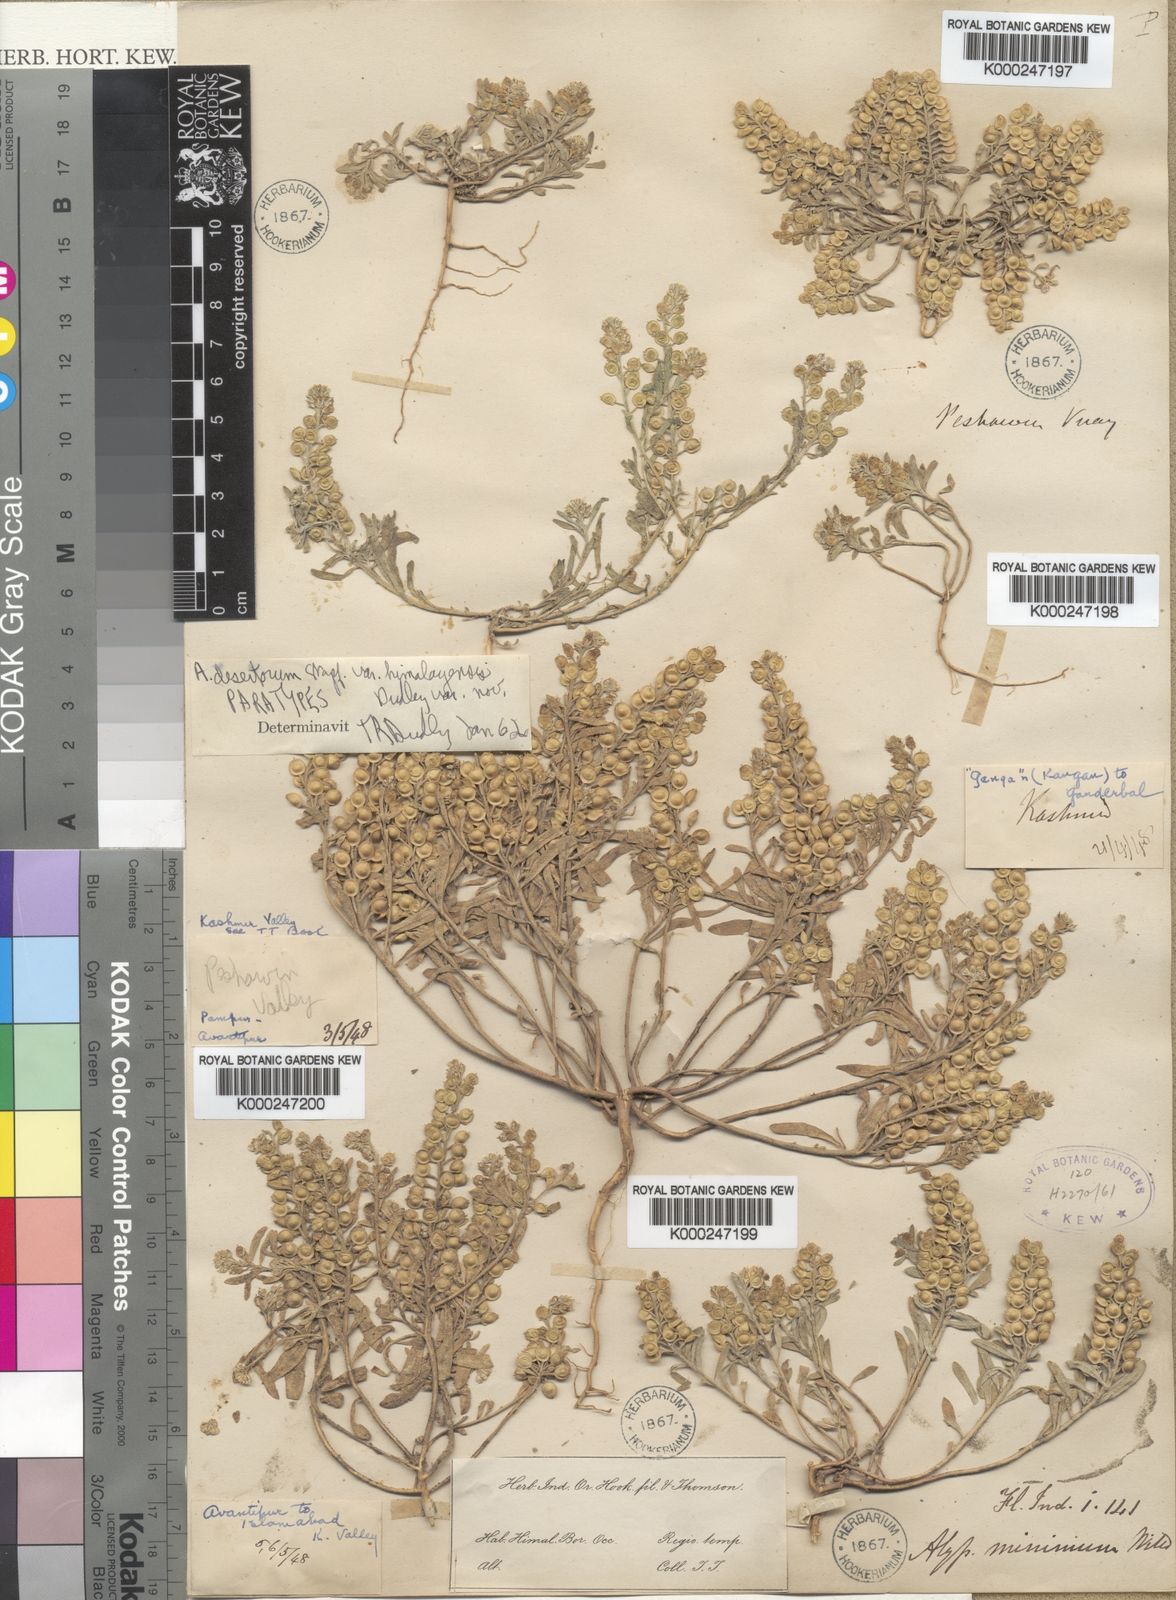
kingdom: Plantae
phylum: Tracheophyta
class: Magnoliopsida
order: Brassicales
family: Brassicaceae
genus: Alyssum
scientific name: Alyssum turkestanicum
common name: Desert alyssum
